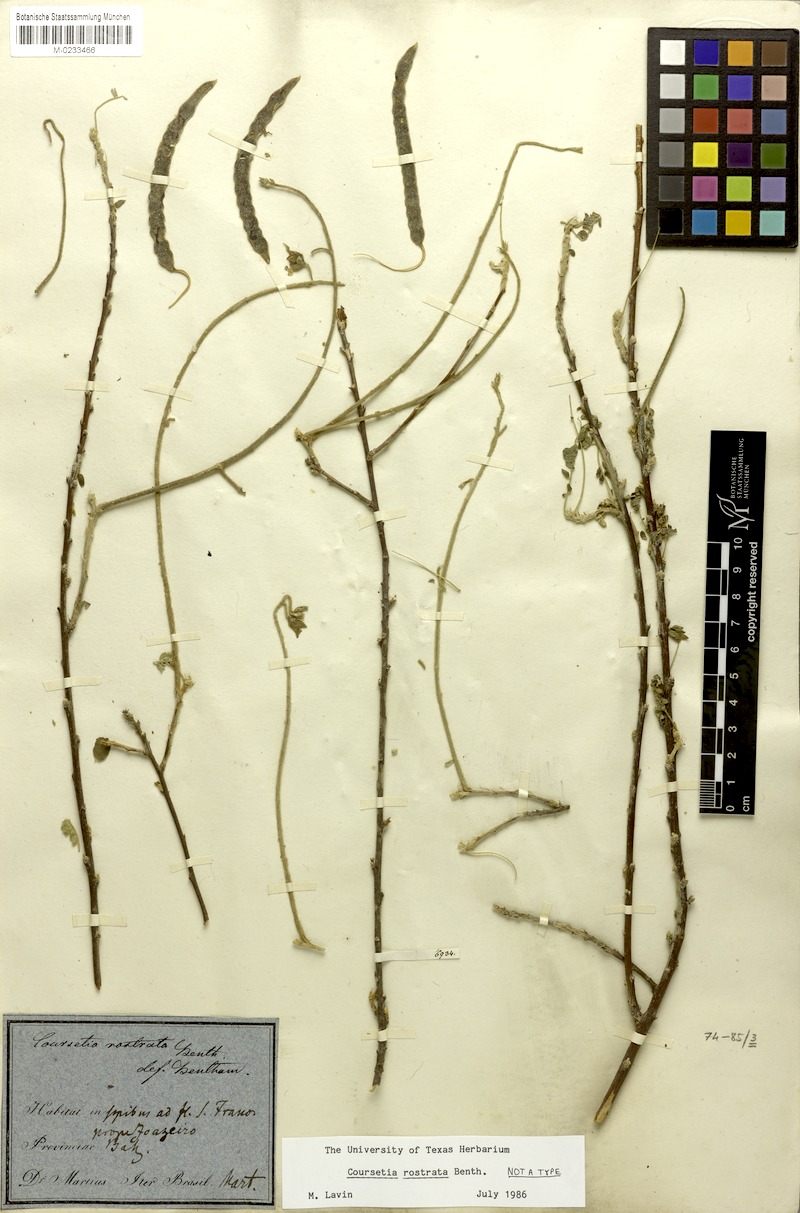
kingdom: Plantae
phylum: Tracheophyta
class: Magnoliopsida
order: Fabales
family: Fabaceae
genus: Coursetia
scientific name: Coursetia rostrata
